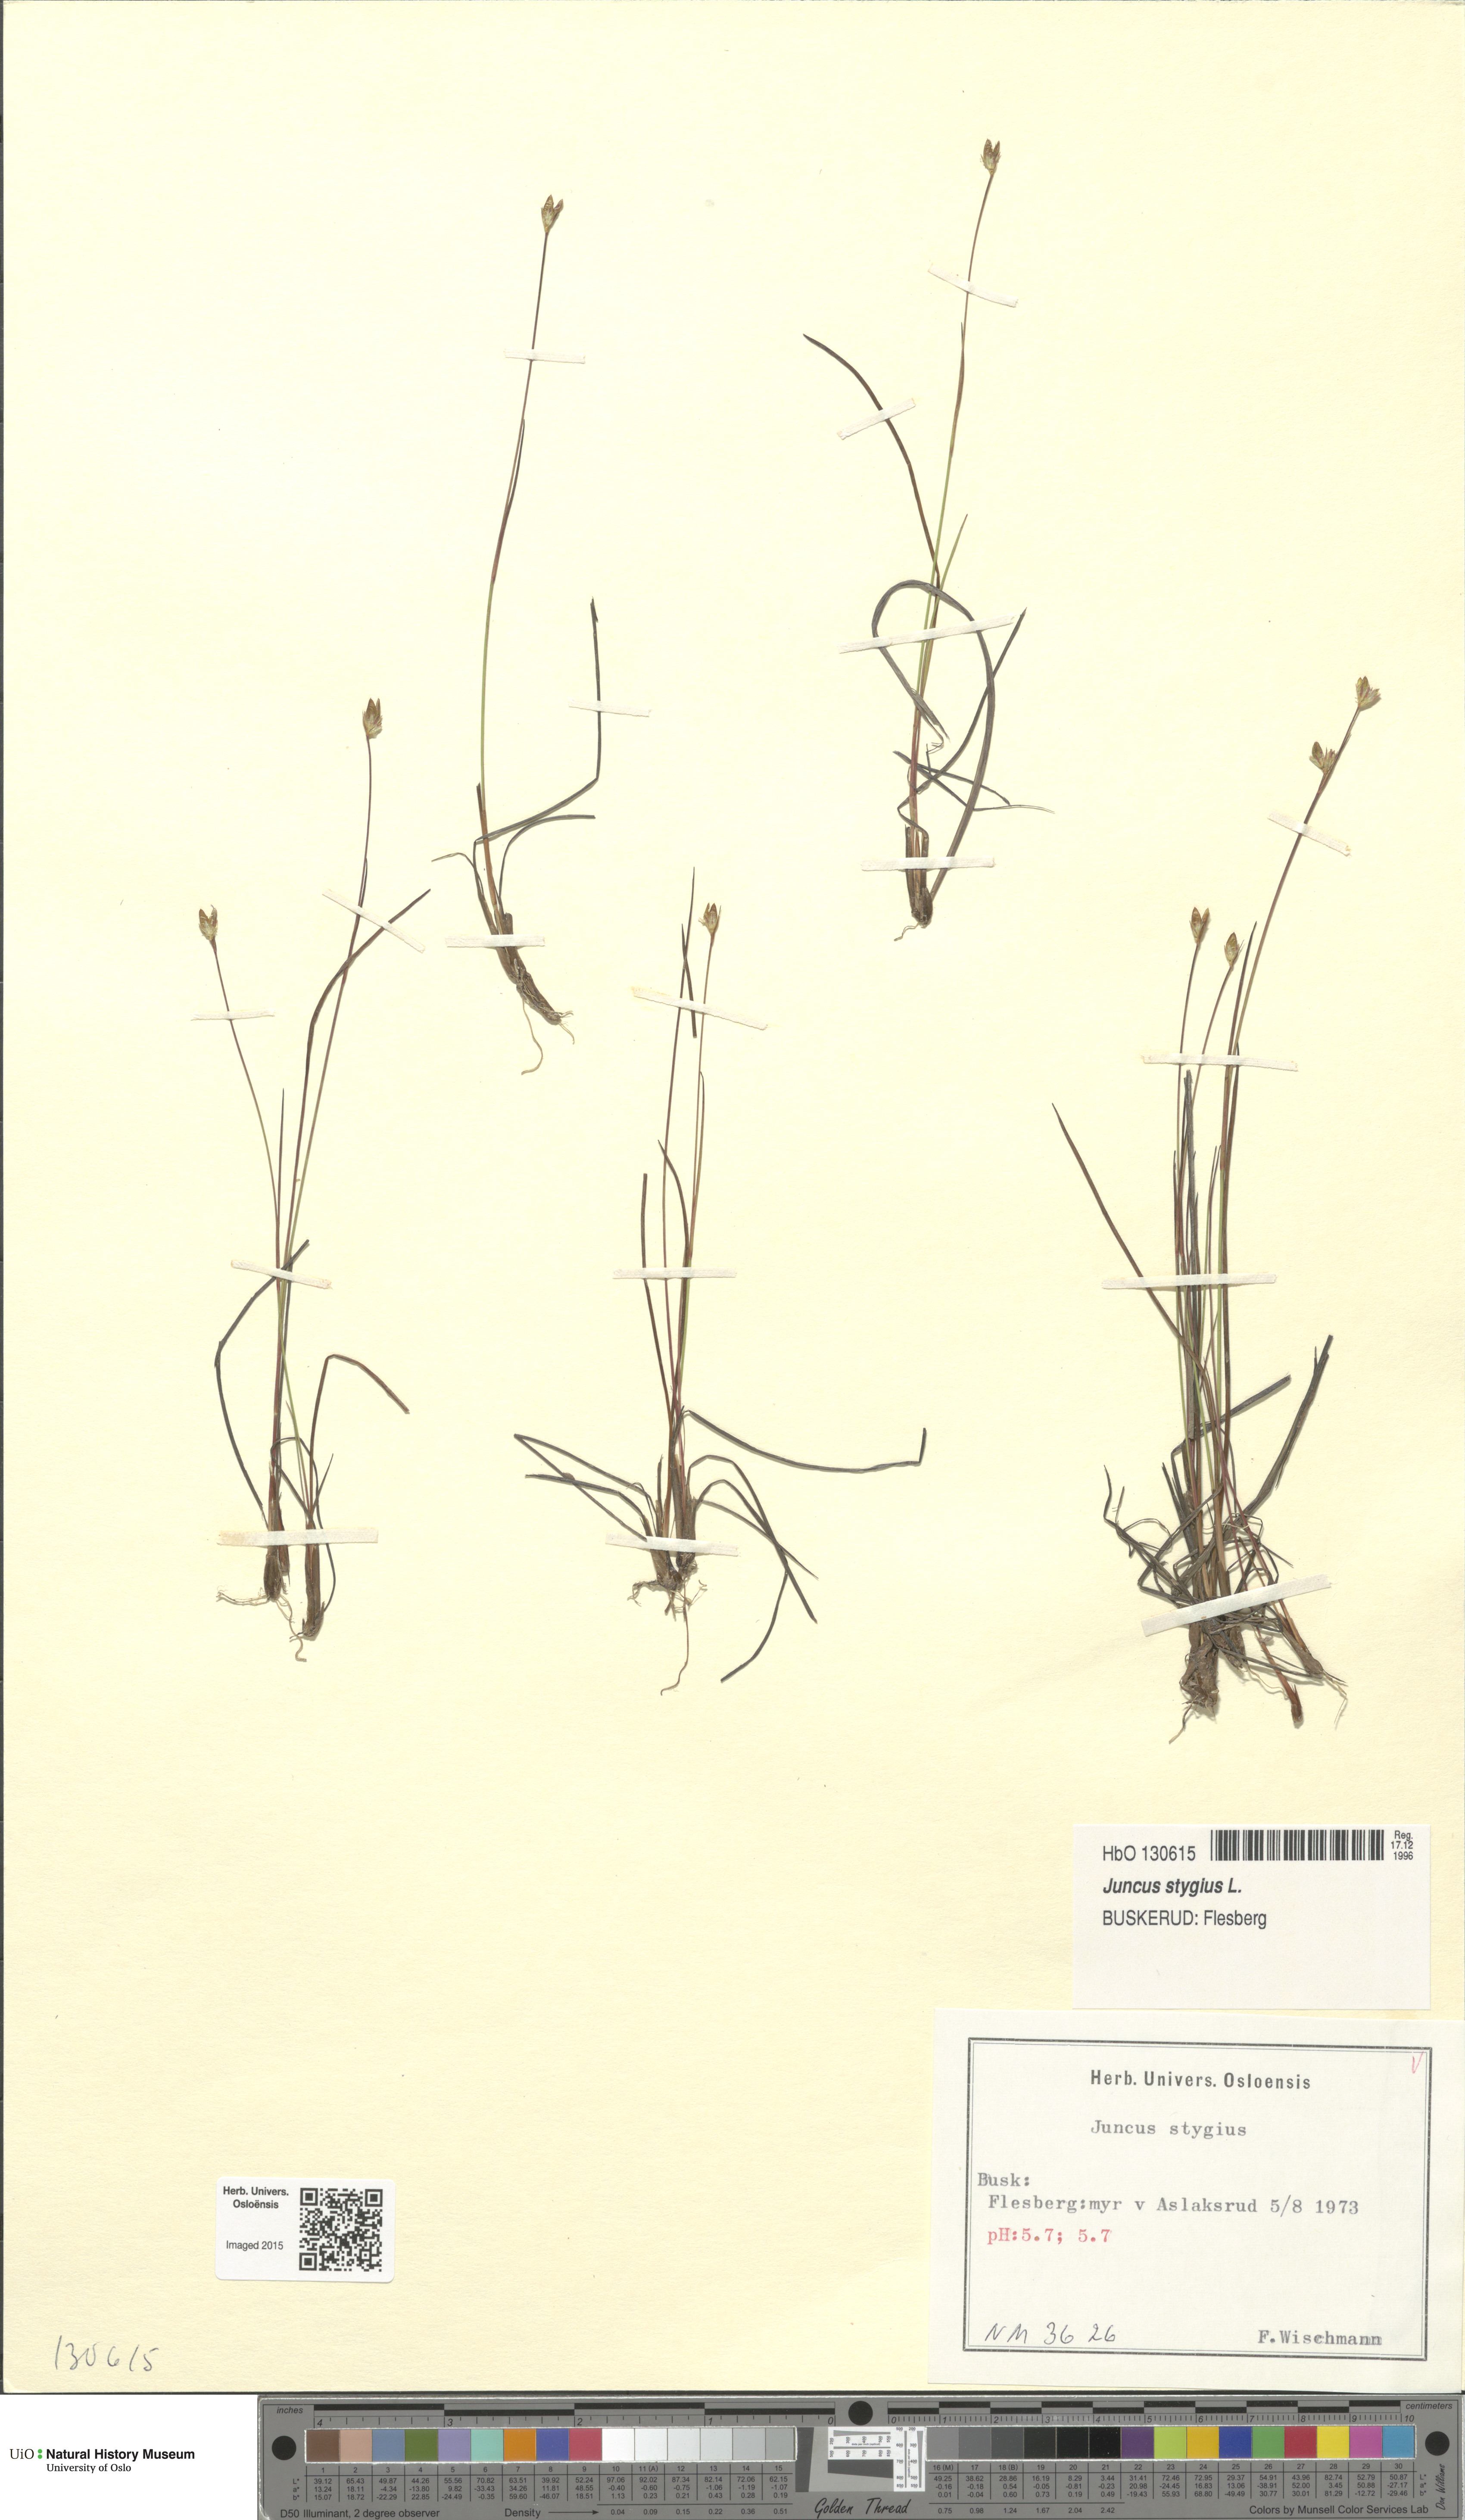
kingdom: Plantae
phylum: Tracheophyta
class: Liliopsida
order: Poales
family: Juncaceae
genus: Juncus
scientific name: Juncus stygius
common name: Bog rush
